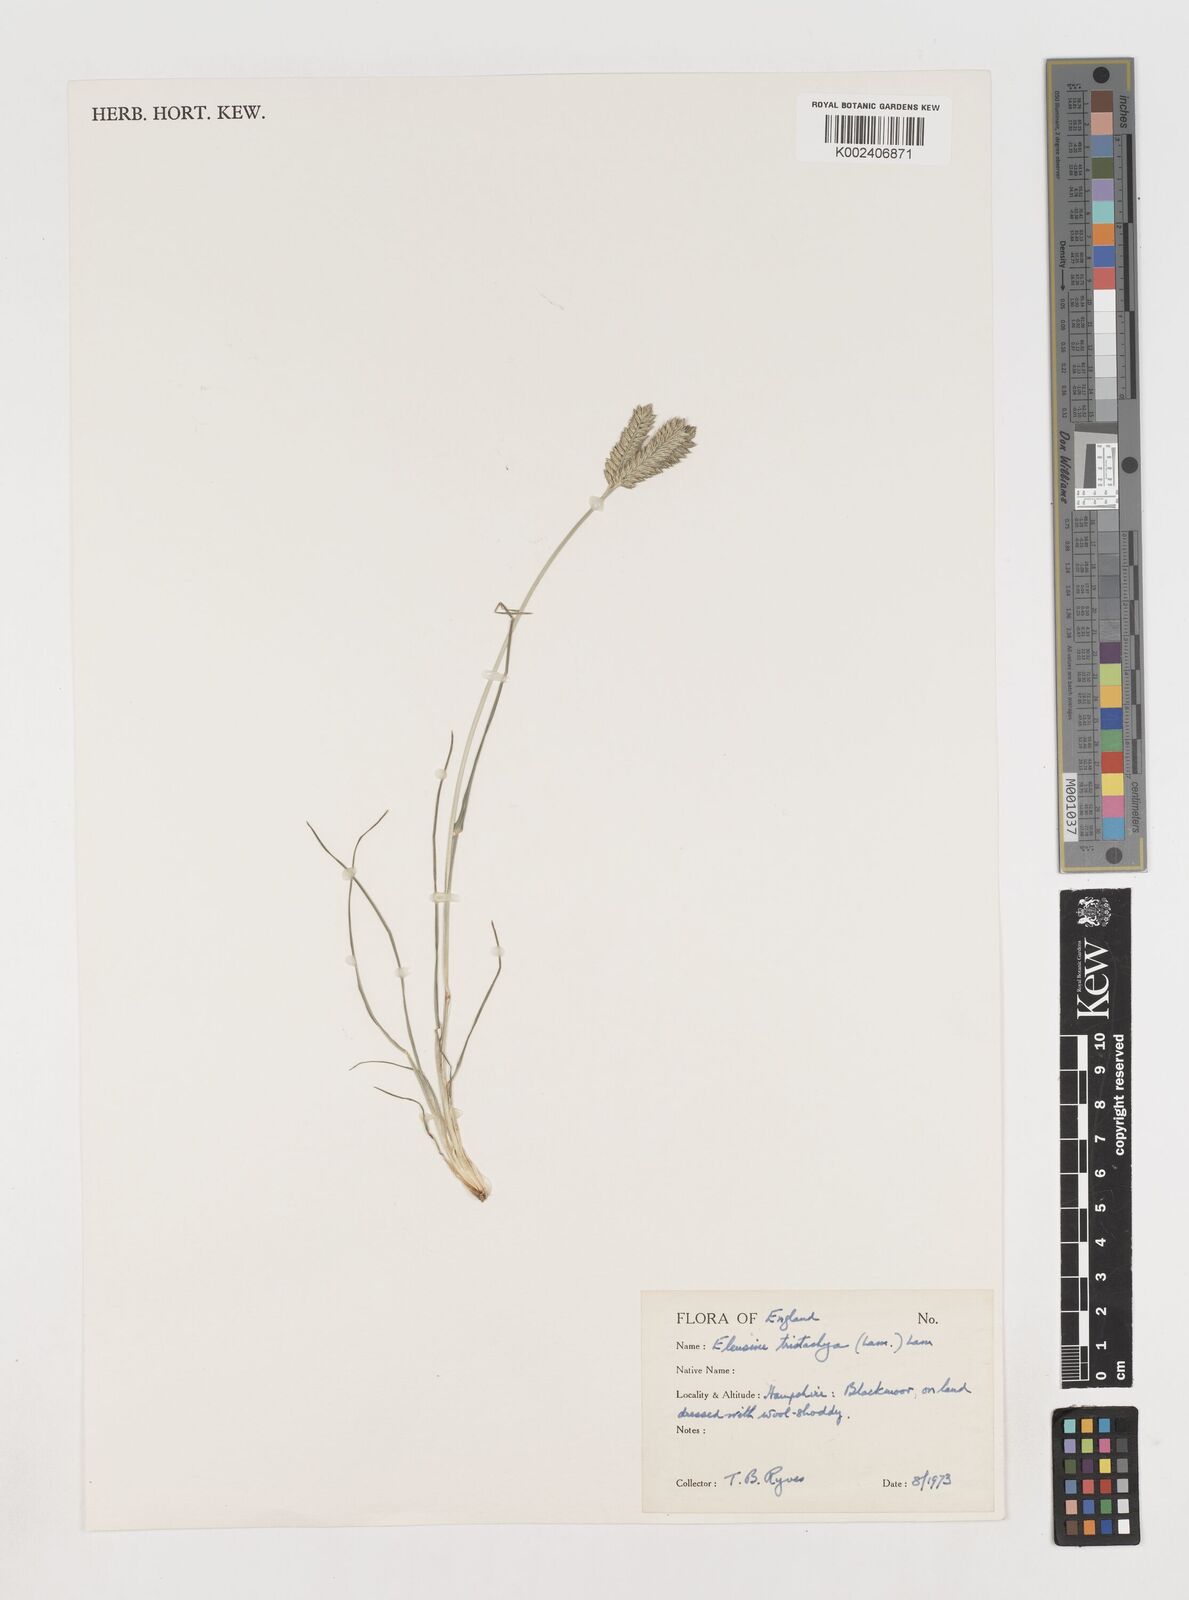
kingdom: Plantae
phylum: Tracheophyta
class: Liliopsida
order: Poales
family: Poaceae
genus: Eleusine
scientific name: Eleusine tristachya
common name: American yard-grass
